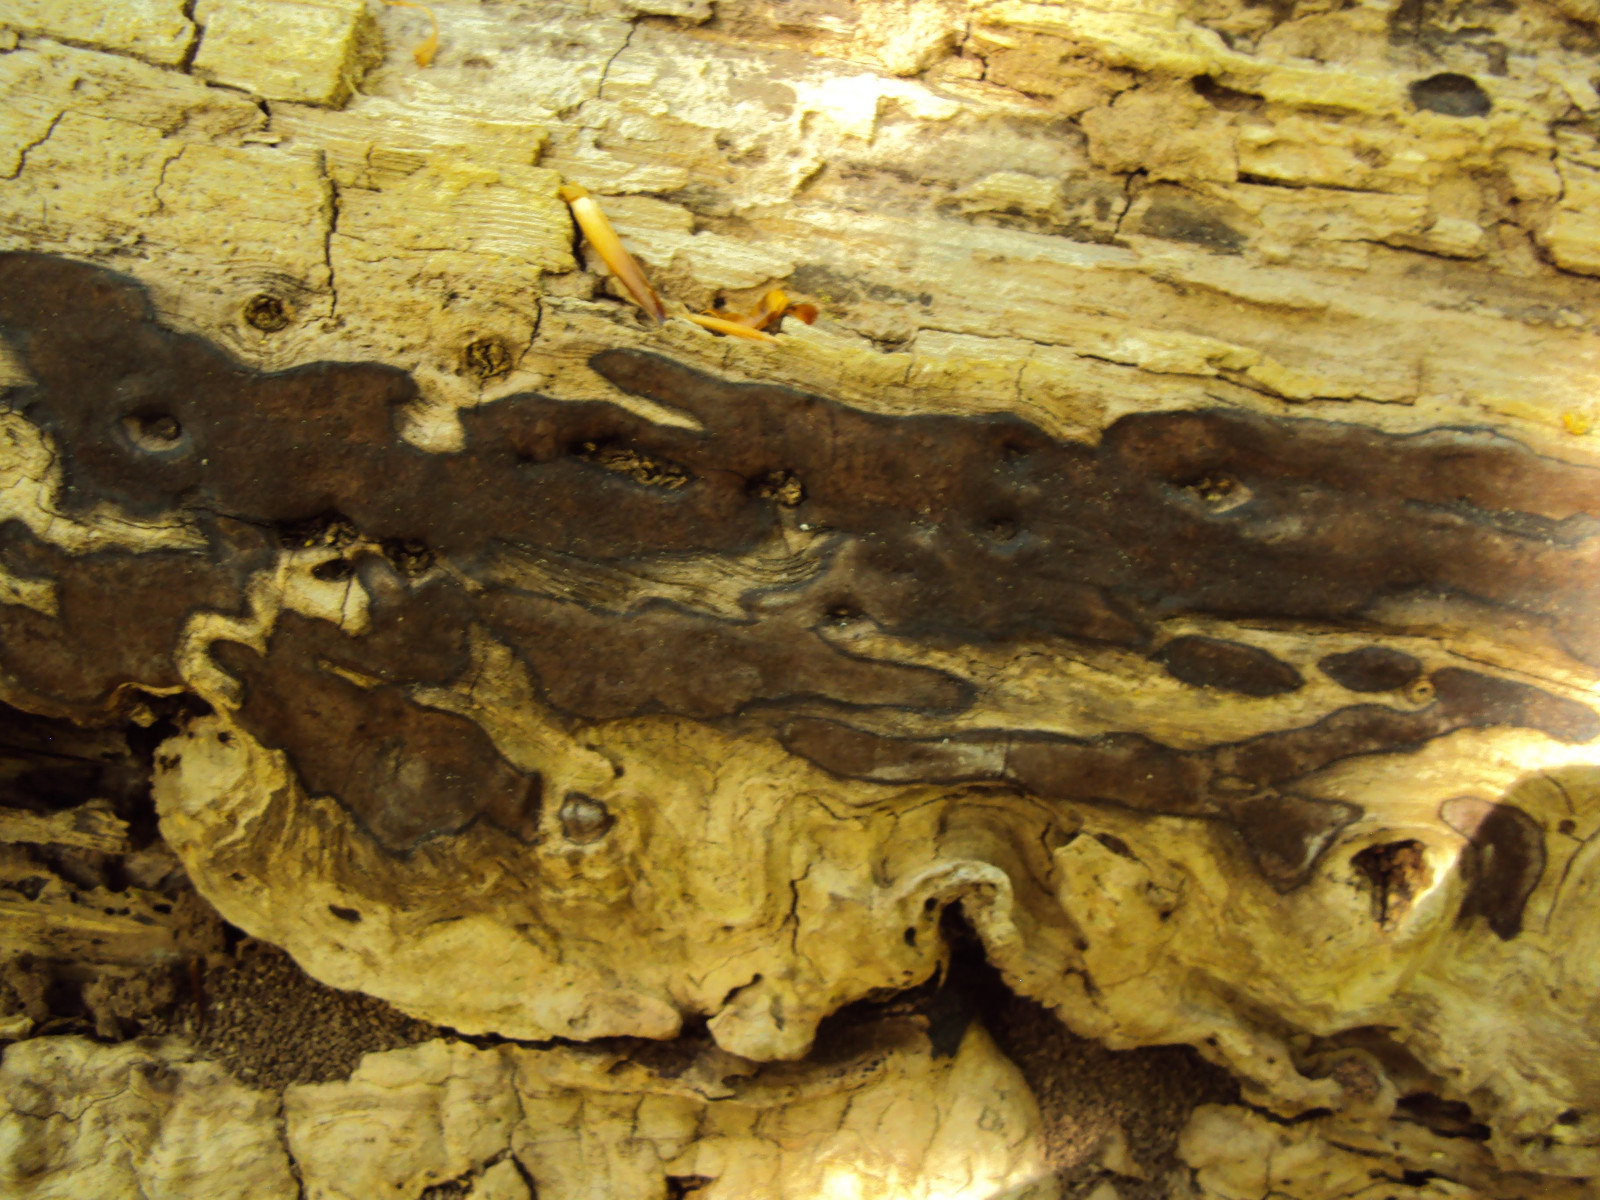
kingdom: Fungi
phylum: Ascomycota
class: Sordariomycetes
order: Xylariales
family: Hypoxylaceae
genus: Hypoxylon
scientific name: Hypoxylon petriniae
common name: nedsænket kulbær
